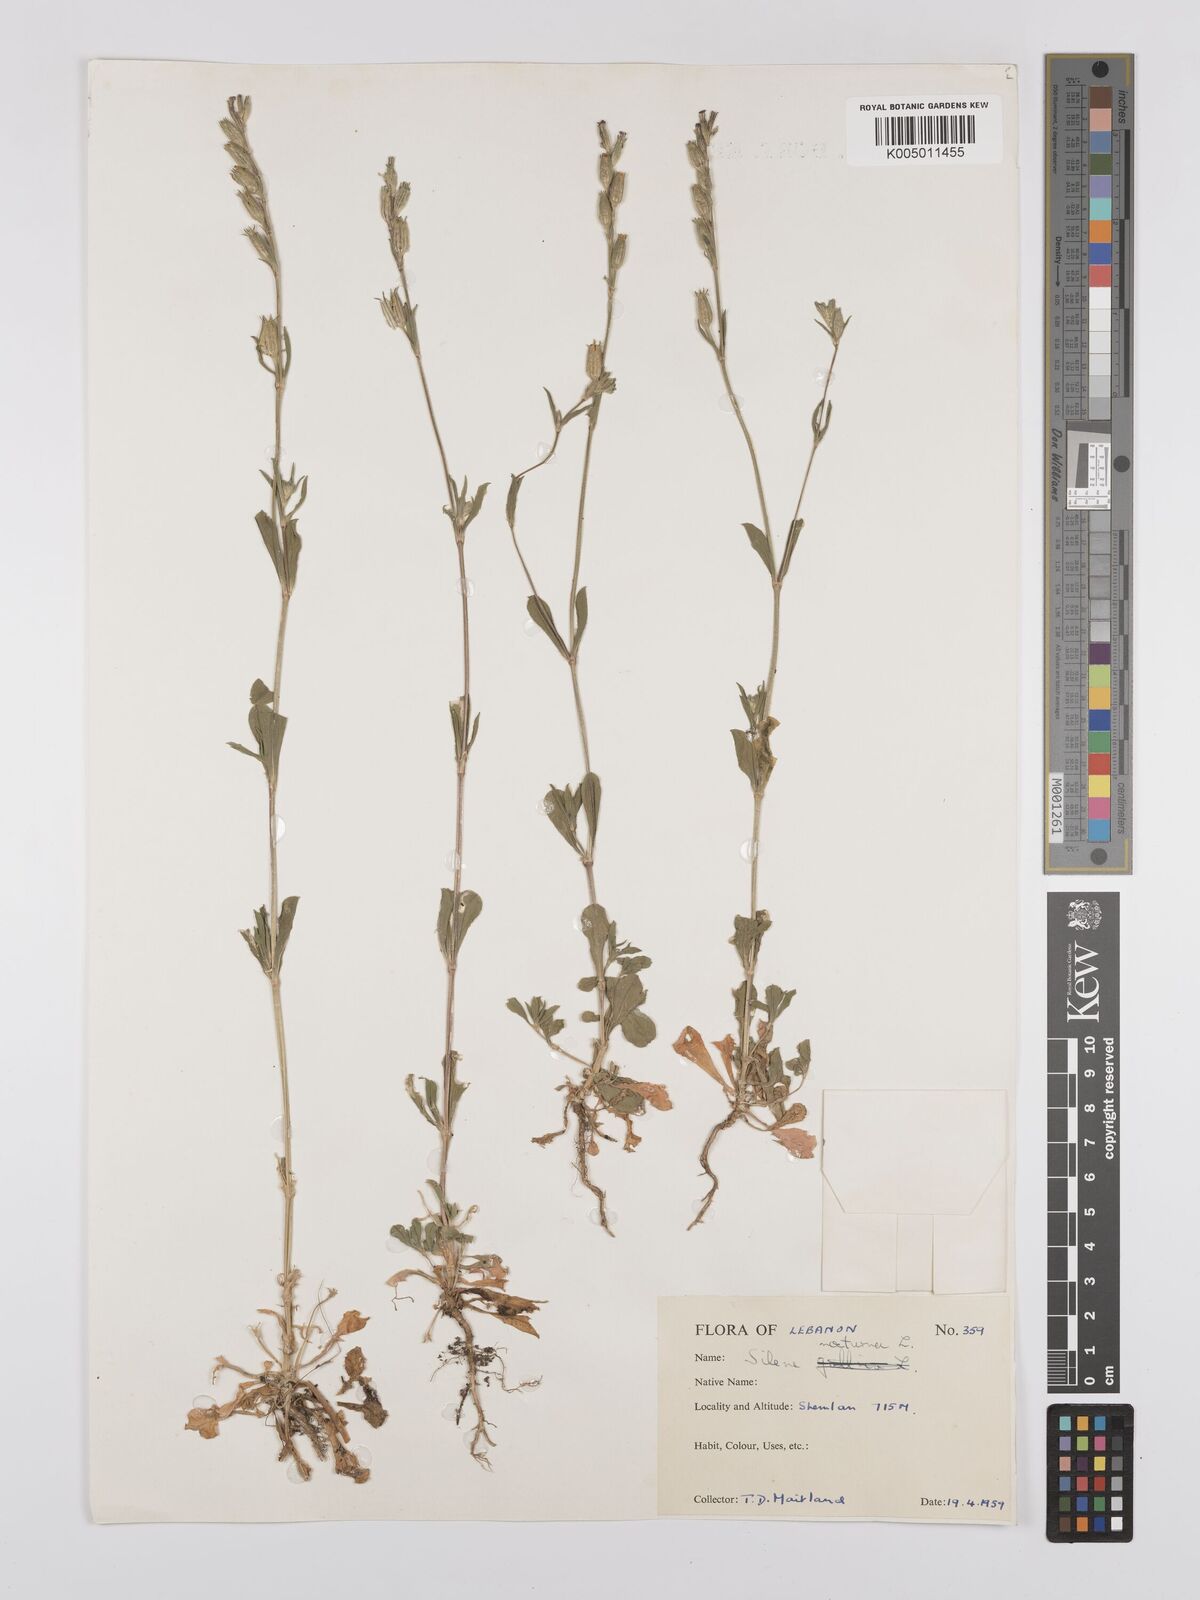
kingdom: Plantae
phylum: Tracheophyta
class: Magnoliopsida
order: Caryophyllales
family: Caryophyllaceae
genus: Silene
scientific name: Silene nocturna
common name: Mediterranean catchfly
